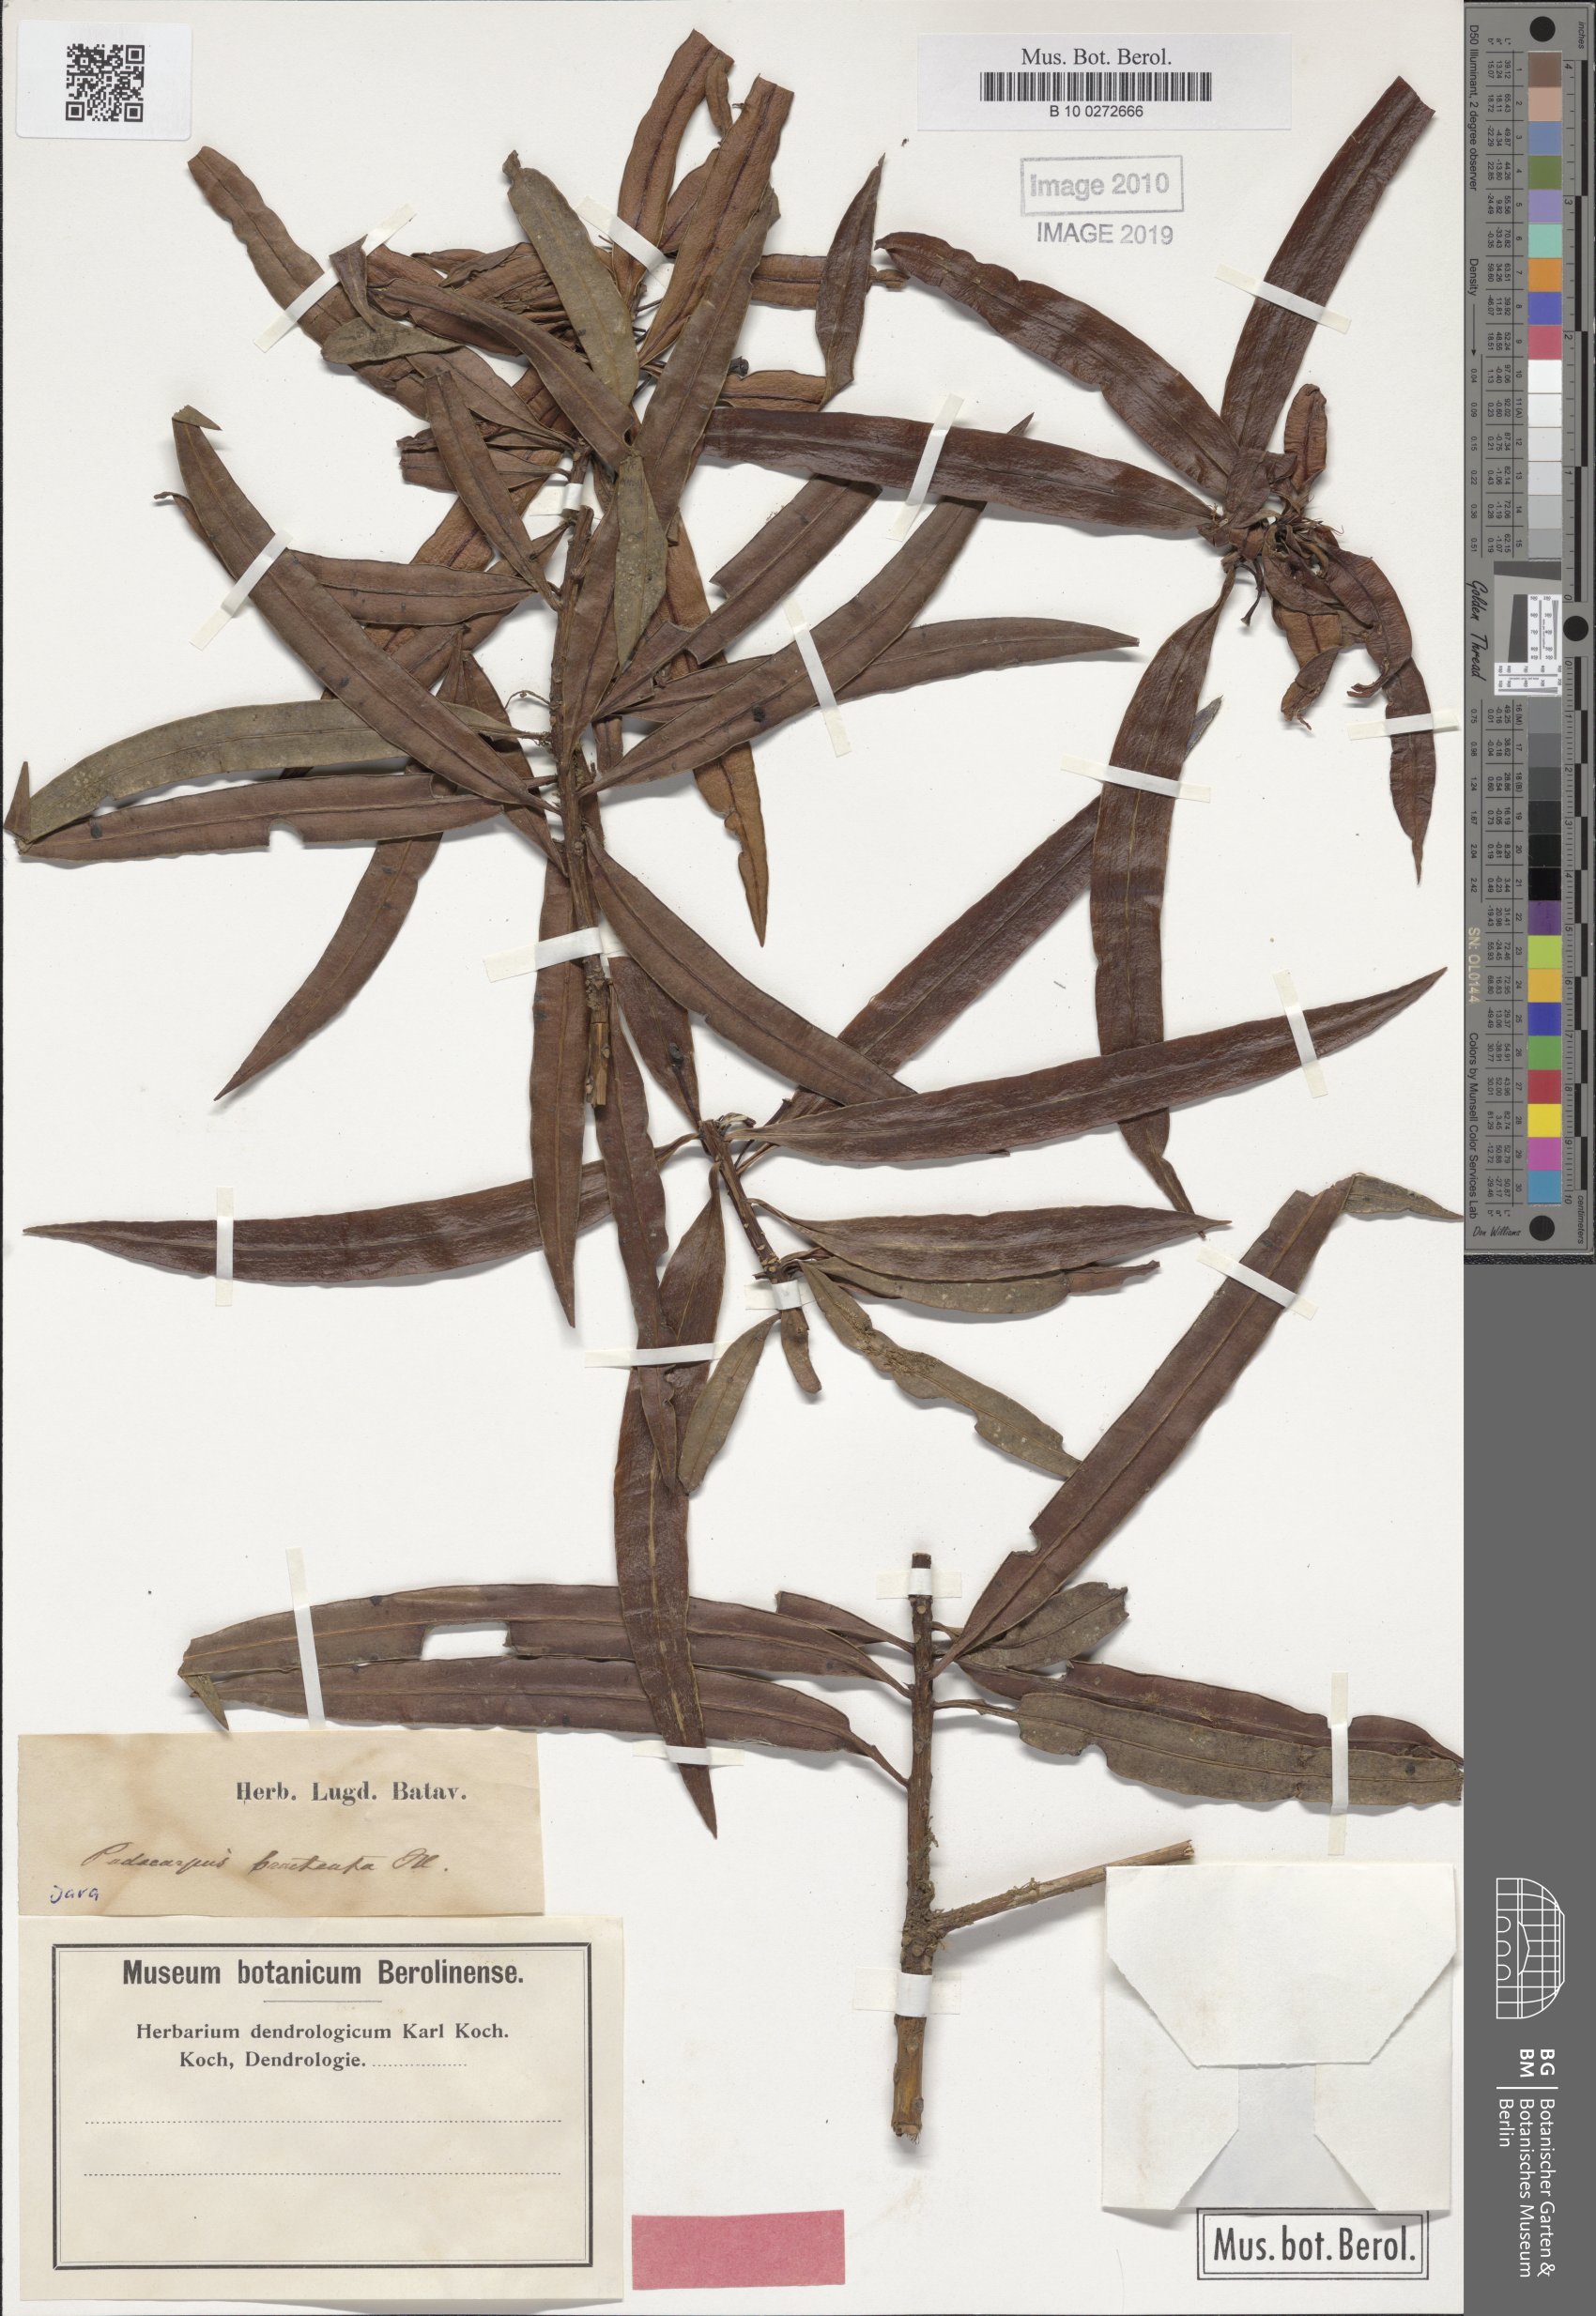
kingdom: Plantae
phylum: Tracheophyta
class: Pinopsida
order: Pinales
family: Podocarpaceae
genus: Podocarpus
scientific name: Podocarpus neriifolius
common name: Brown pine
